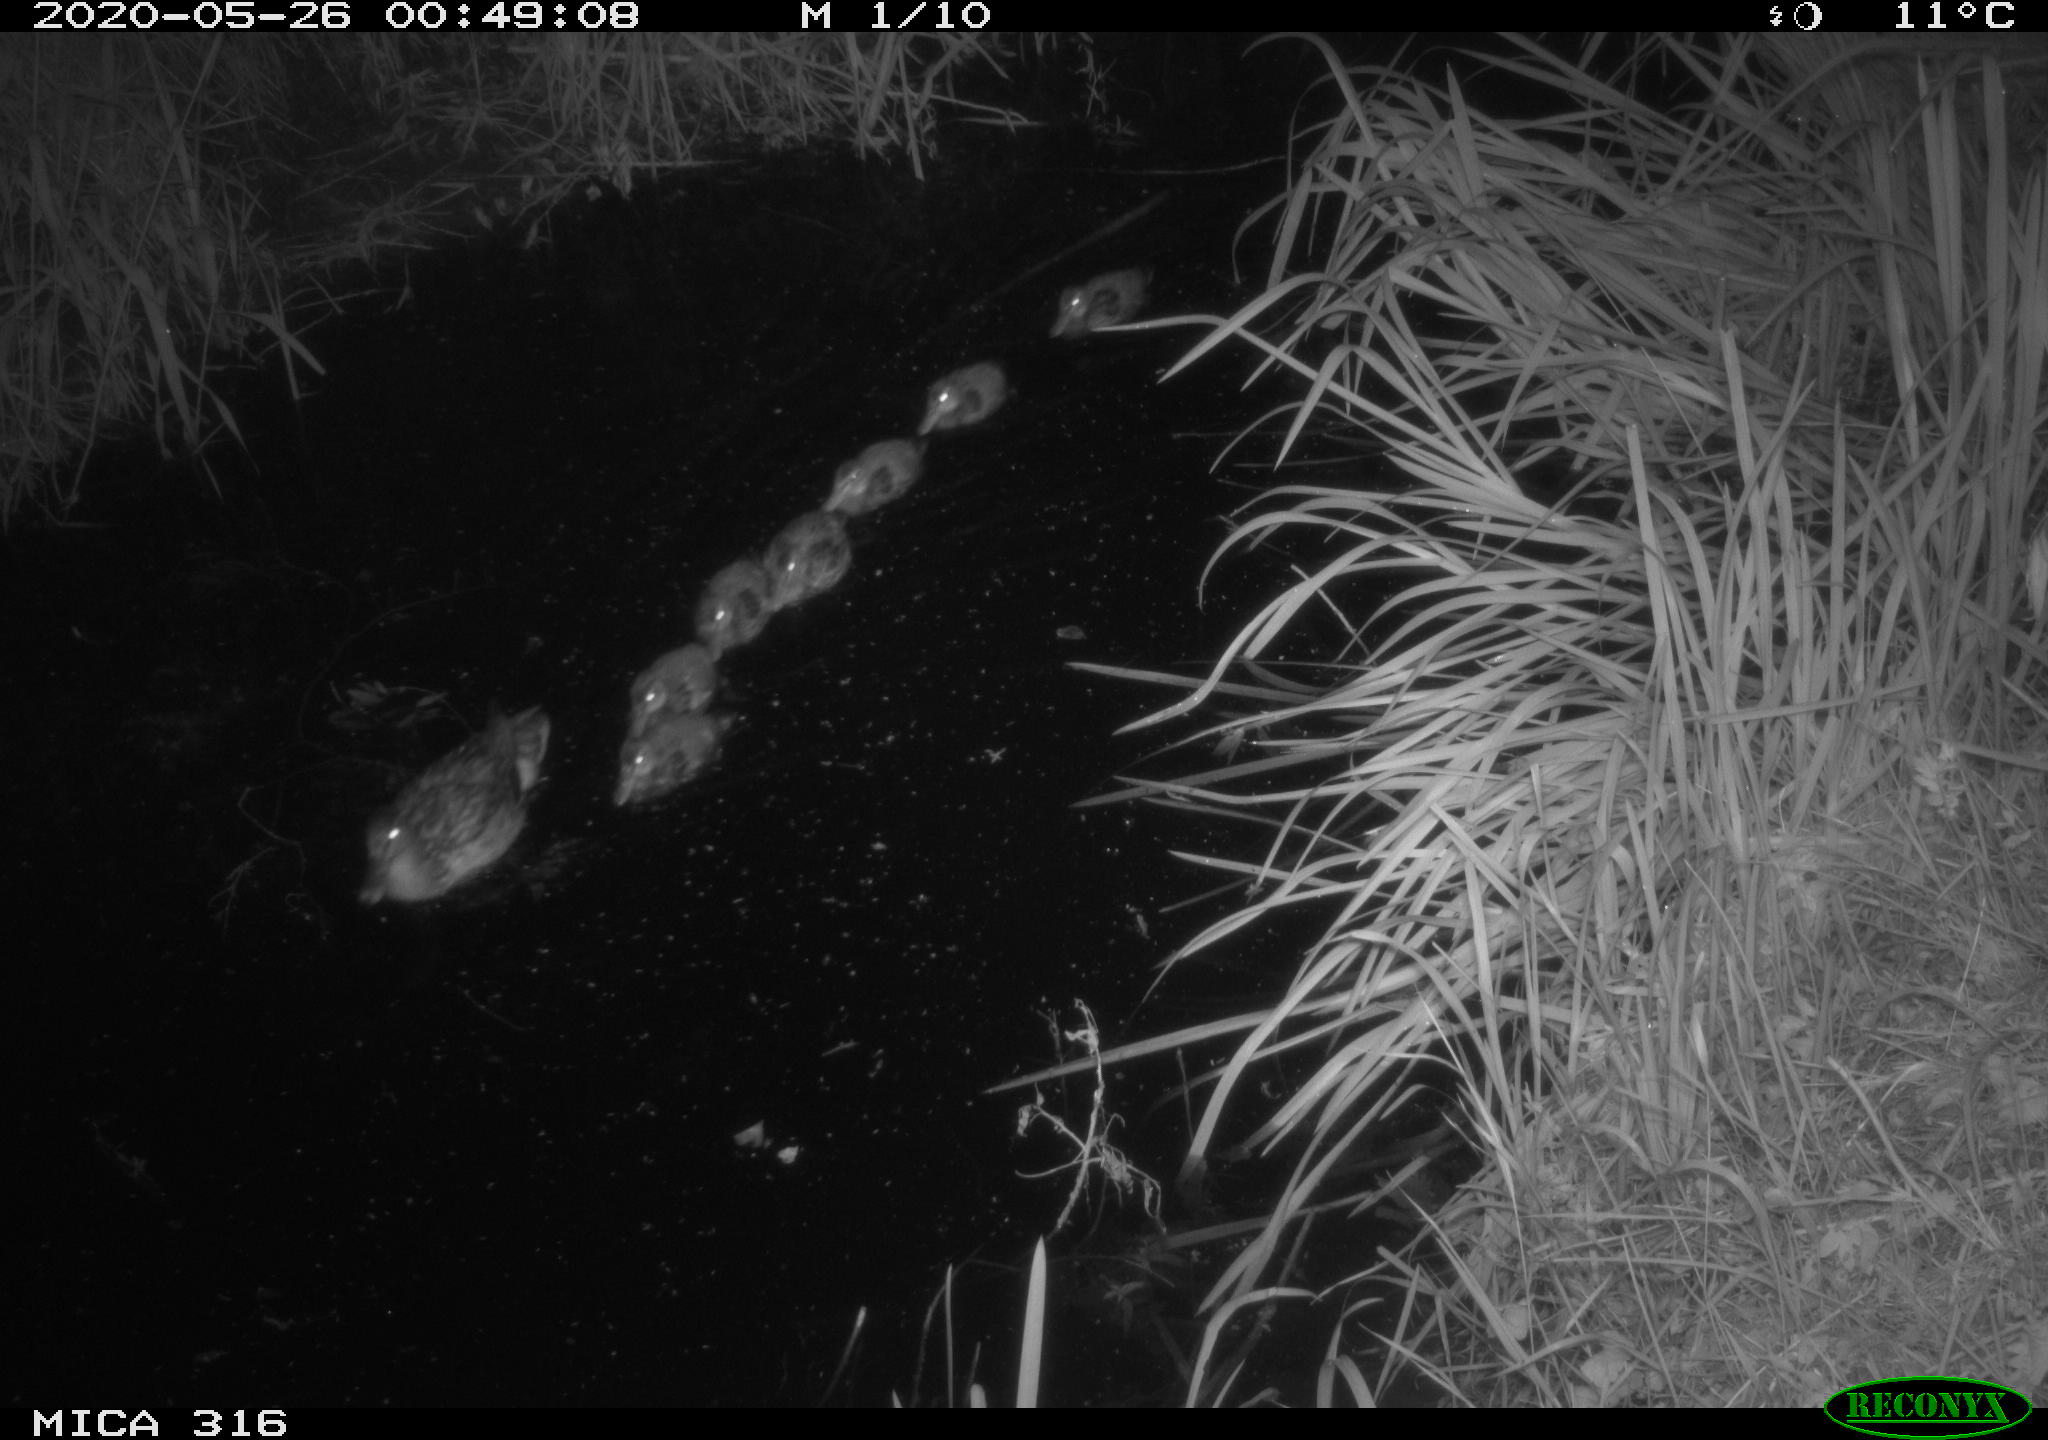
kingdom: Animalia
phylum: Chordata
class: Aves
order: Anseriformes
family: Anatidae
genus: Anas
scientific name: Anas platyrhynchos
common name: Mallard
